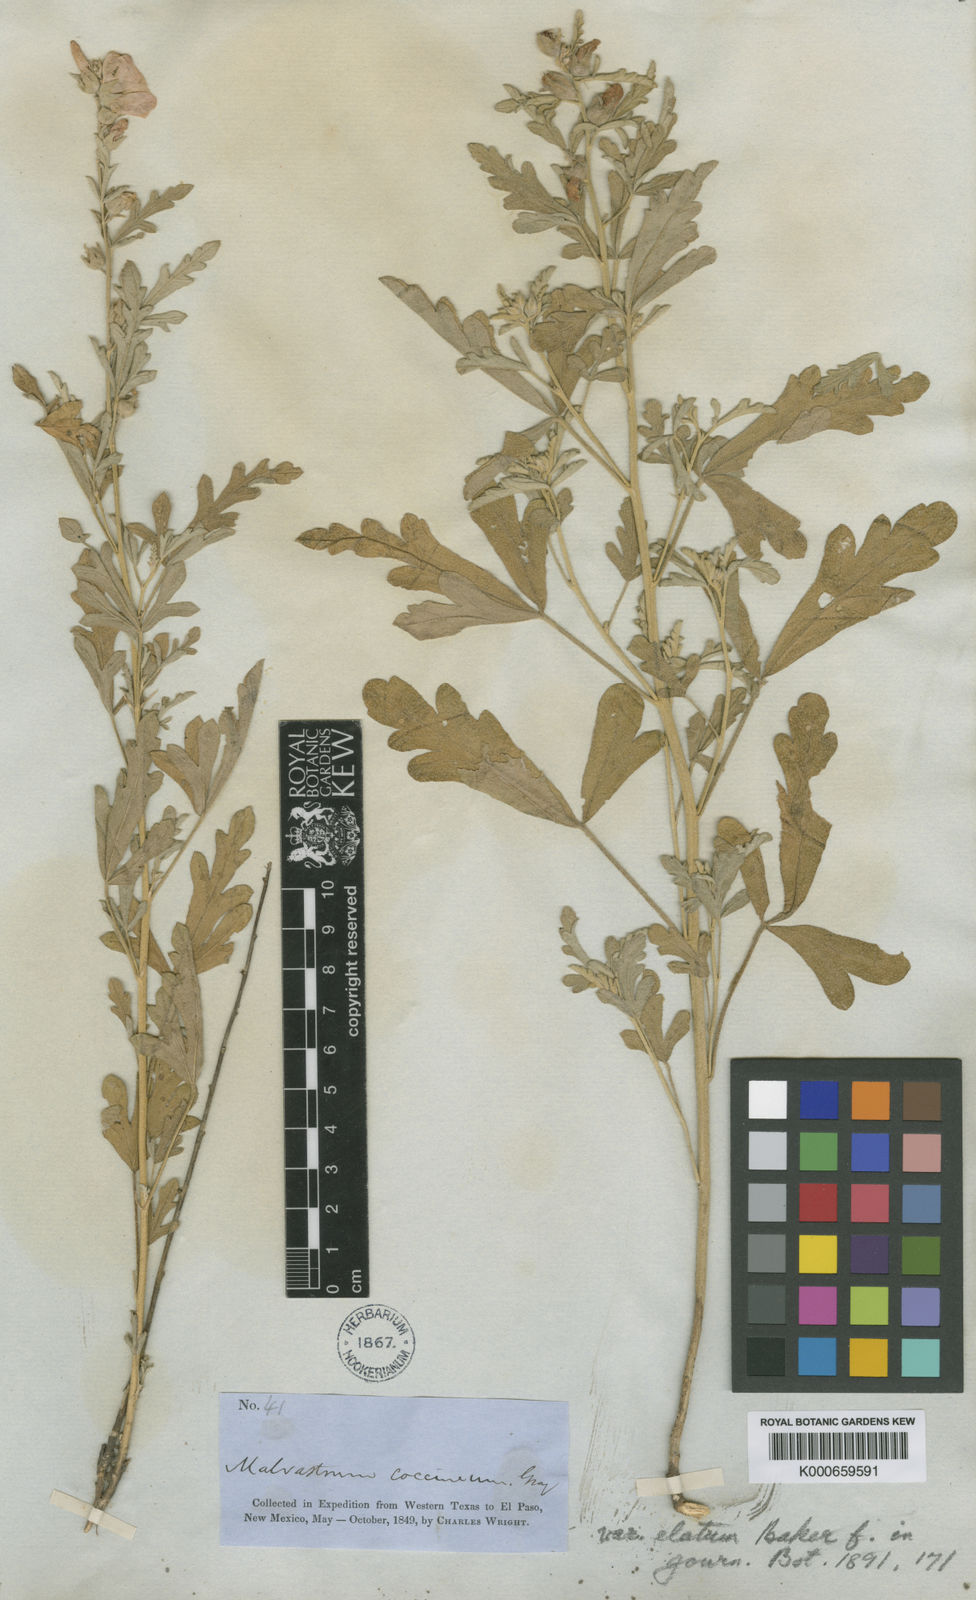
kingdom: Plantae
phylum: Tracheophyta
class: Magnoliopsida
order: Malvales
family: Malvaceae
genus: Sphaeralcea
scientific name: Sphaeralcea grossulariifolia
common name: Current-leaf globe-mallow
